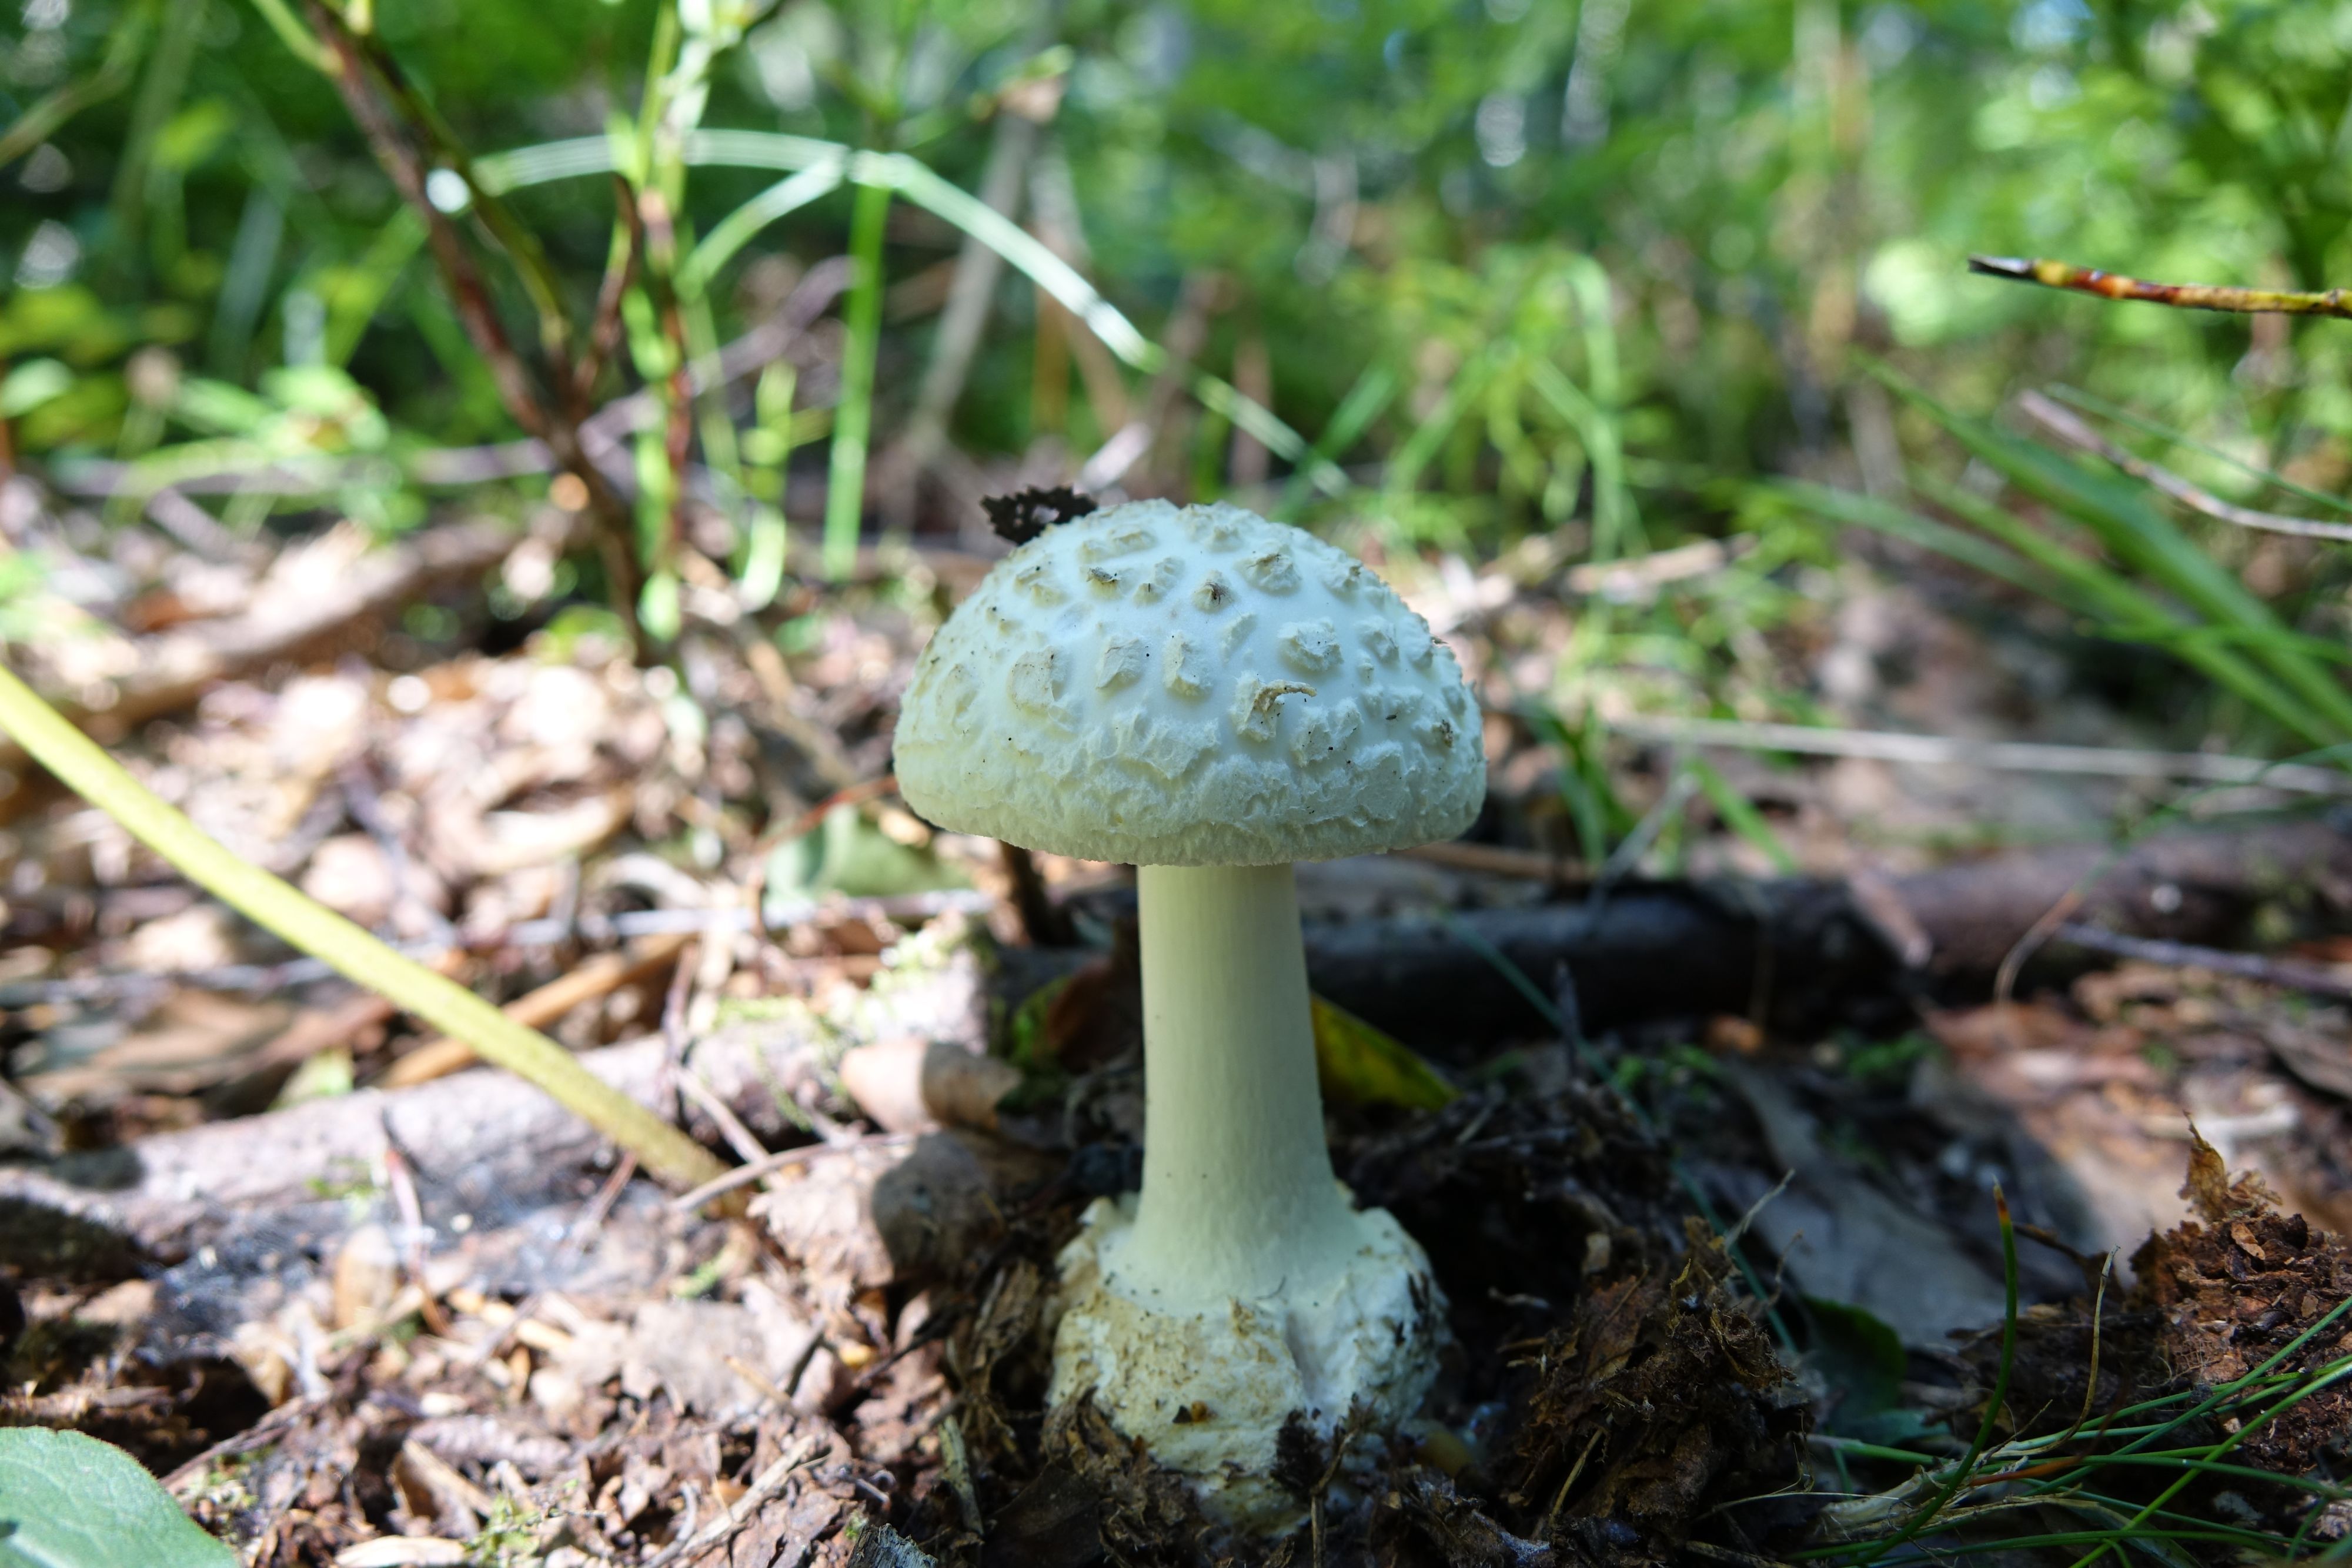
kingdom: Fungi
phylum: Basidiomycota
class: Agaricomycetes
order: Agaricales
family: Amanitaceae
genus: Amanita
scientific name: Amanita citrina
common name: False death-cap
